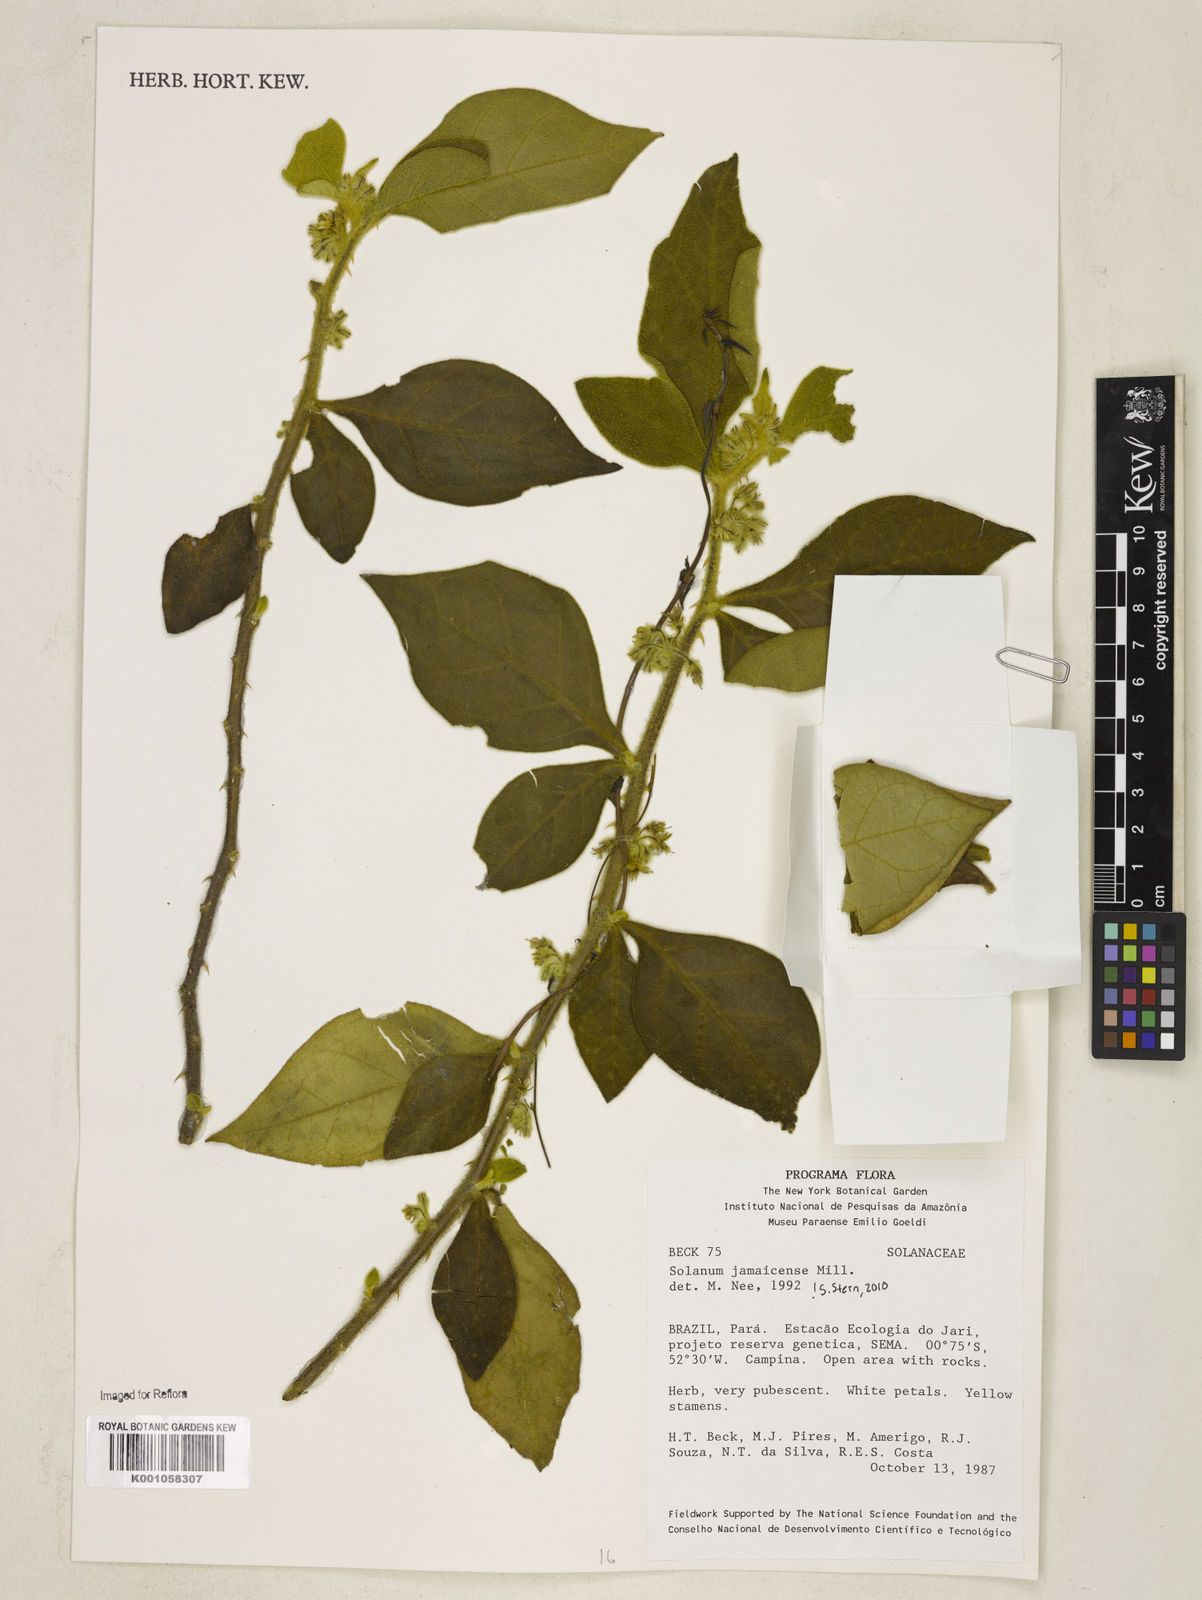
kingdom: Plantae
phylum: Tracheophyta
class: Magnoliopsida
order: Solanales
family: Solanaceae
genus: Solanum
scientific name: Solanum jamaicense
